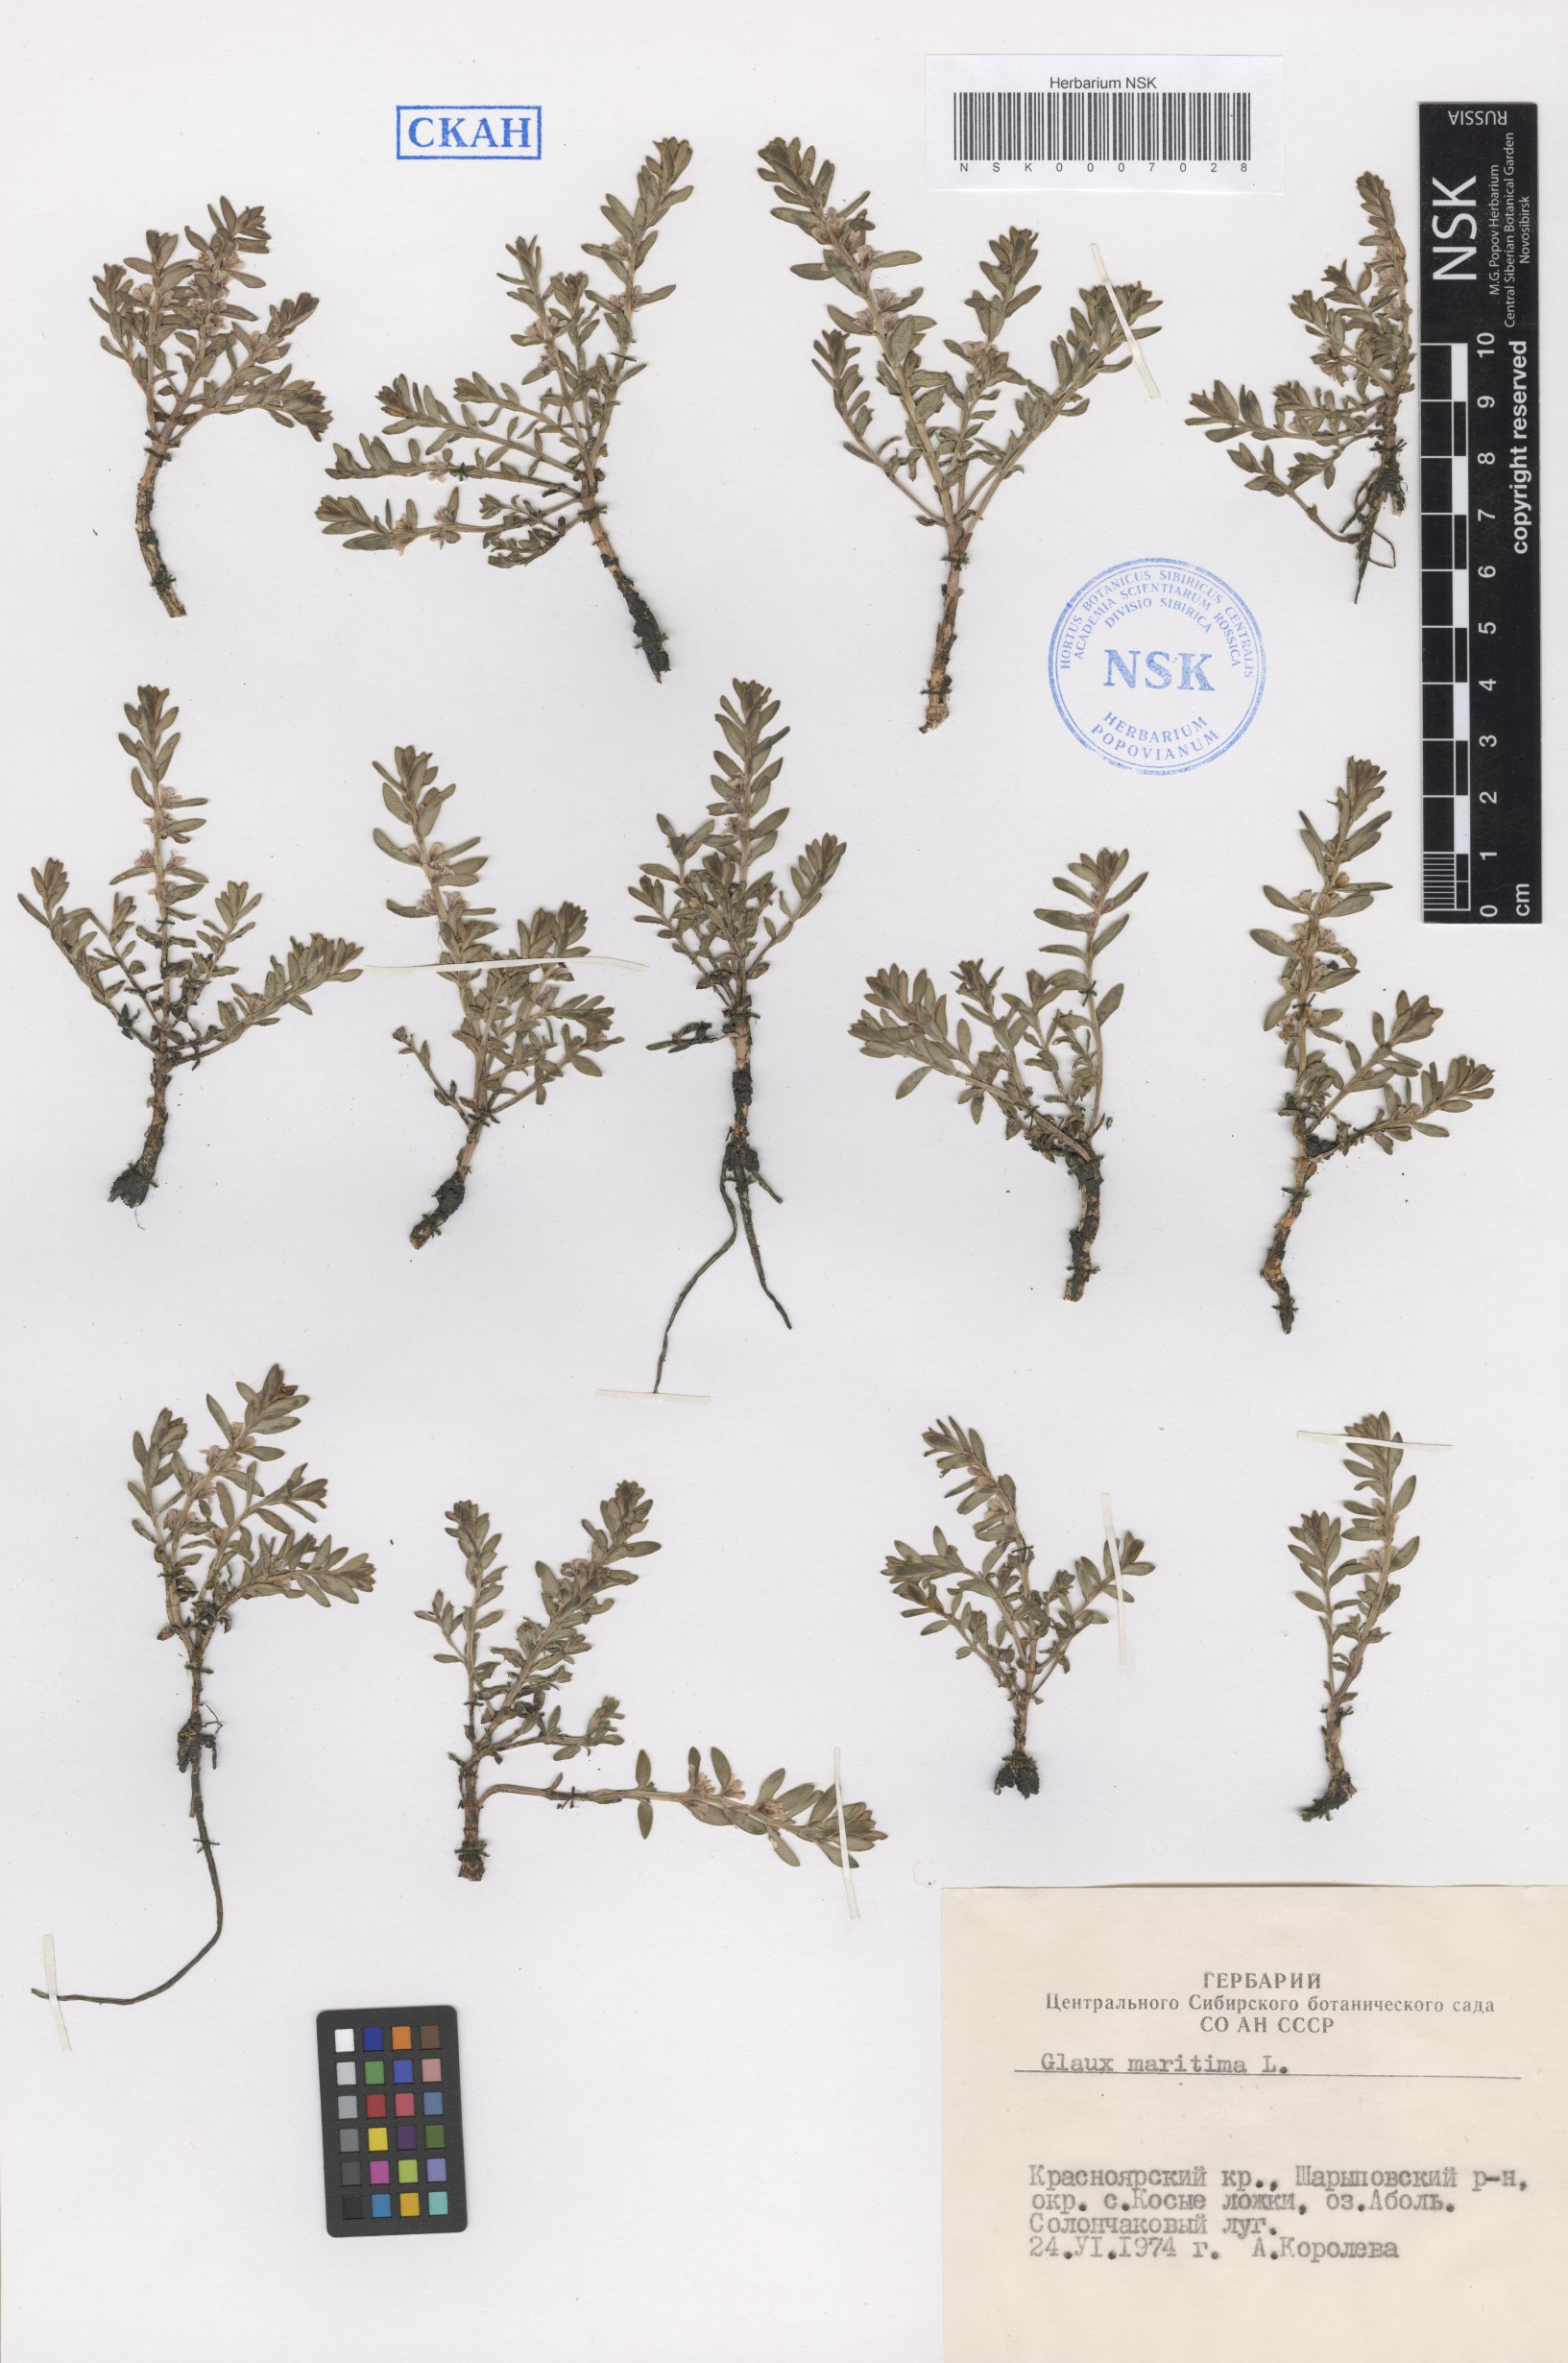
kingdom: Plantae
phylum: Tracheophyta
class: Magnoliopsida
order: Ericales
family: Primulaceae
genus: Lysimachia
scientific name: Lysimachia maritima
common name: Sea milkwort
